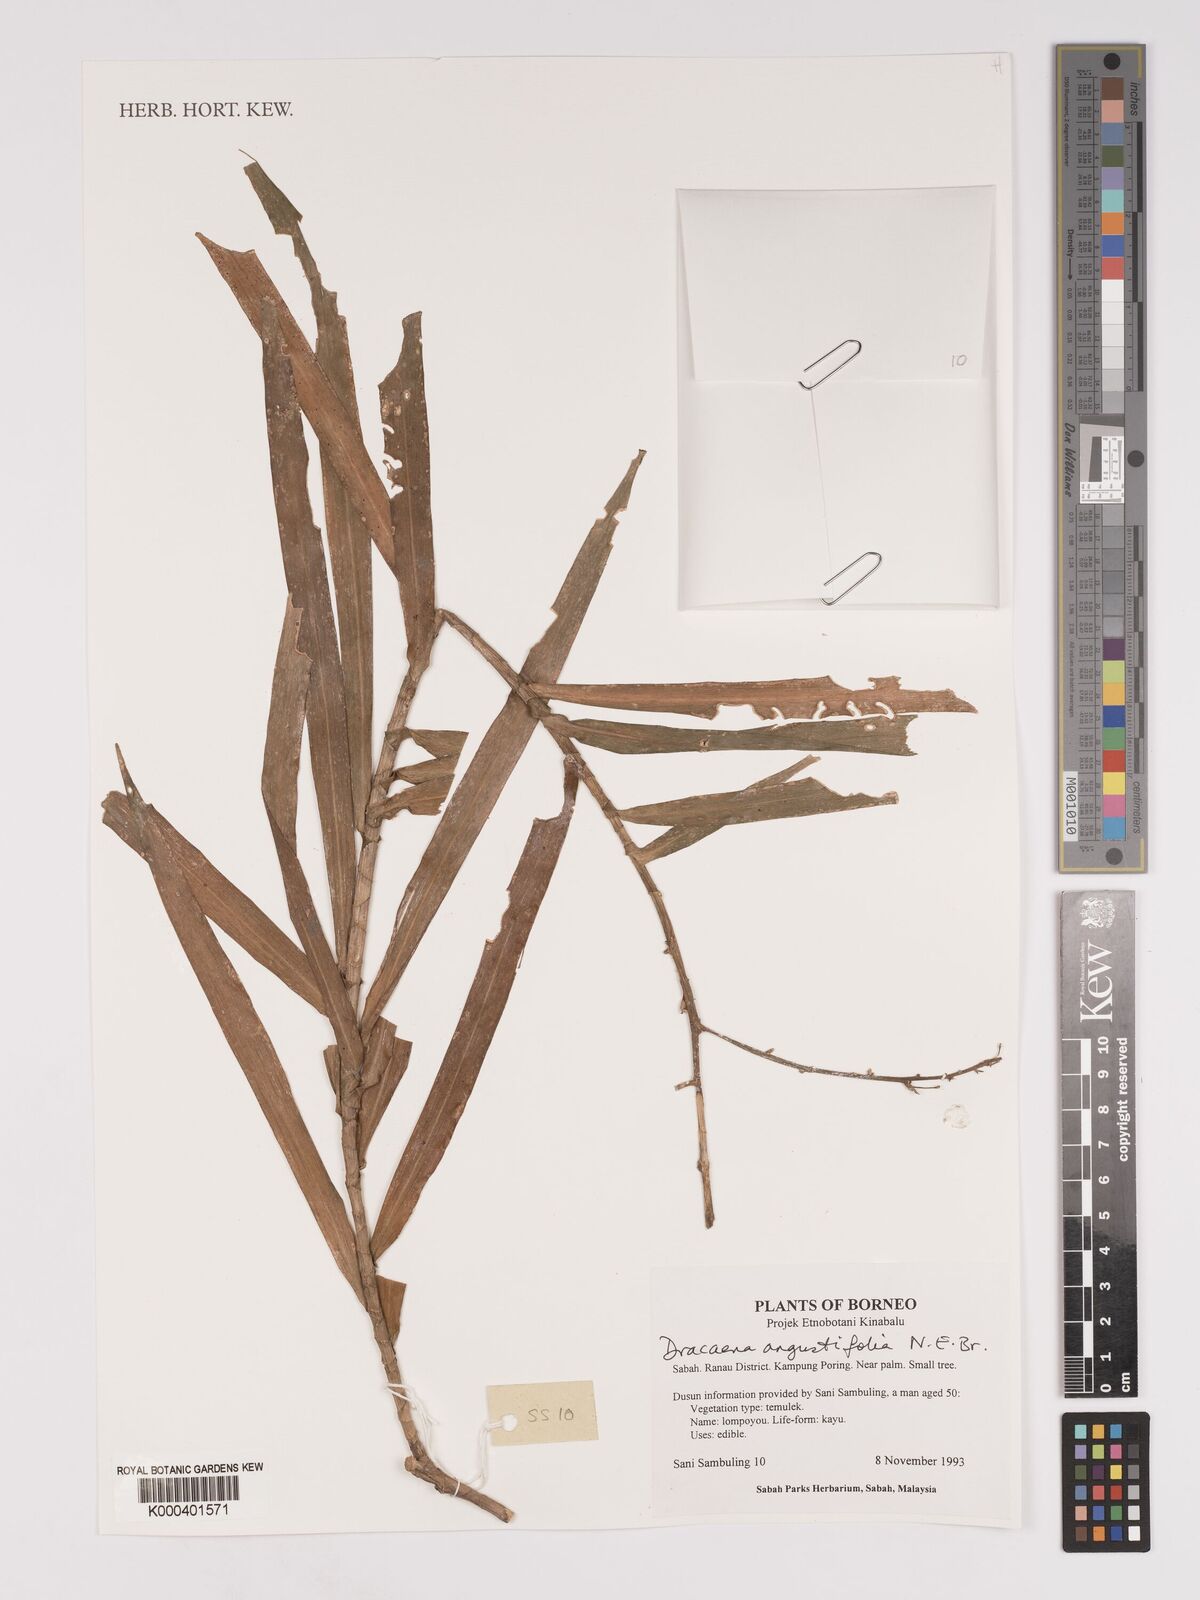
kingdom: Plantae
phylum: Tracheophyta
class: Liliopsida
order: Asparagales
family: Asparagaceae
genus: Dracaena
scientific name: Dracaena angustifolia
